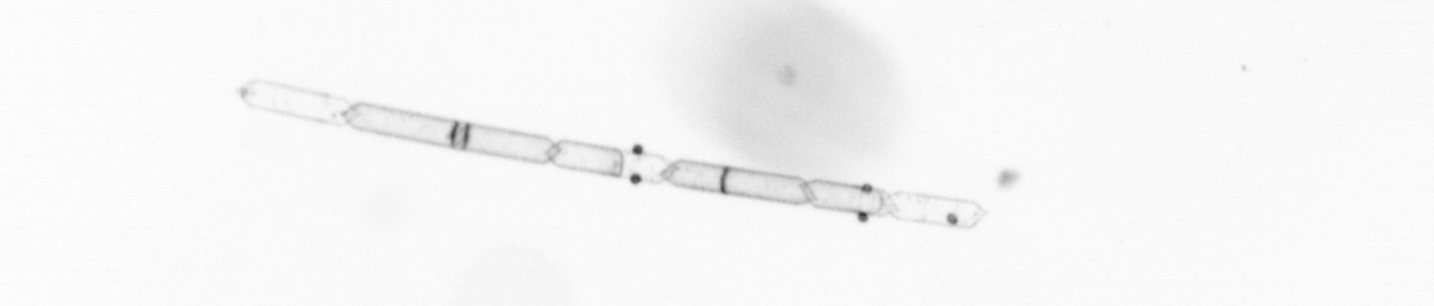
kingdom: Chromista
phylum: Ochrophyta
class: Bacillariophyceae
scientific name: Bacillariophyceae
